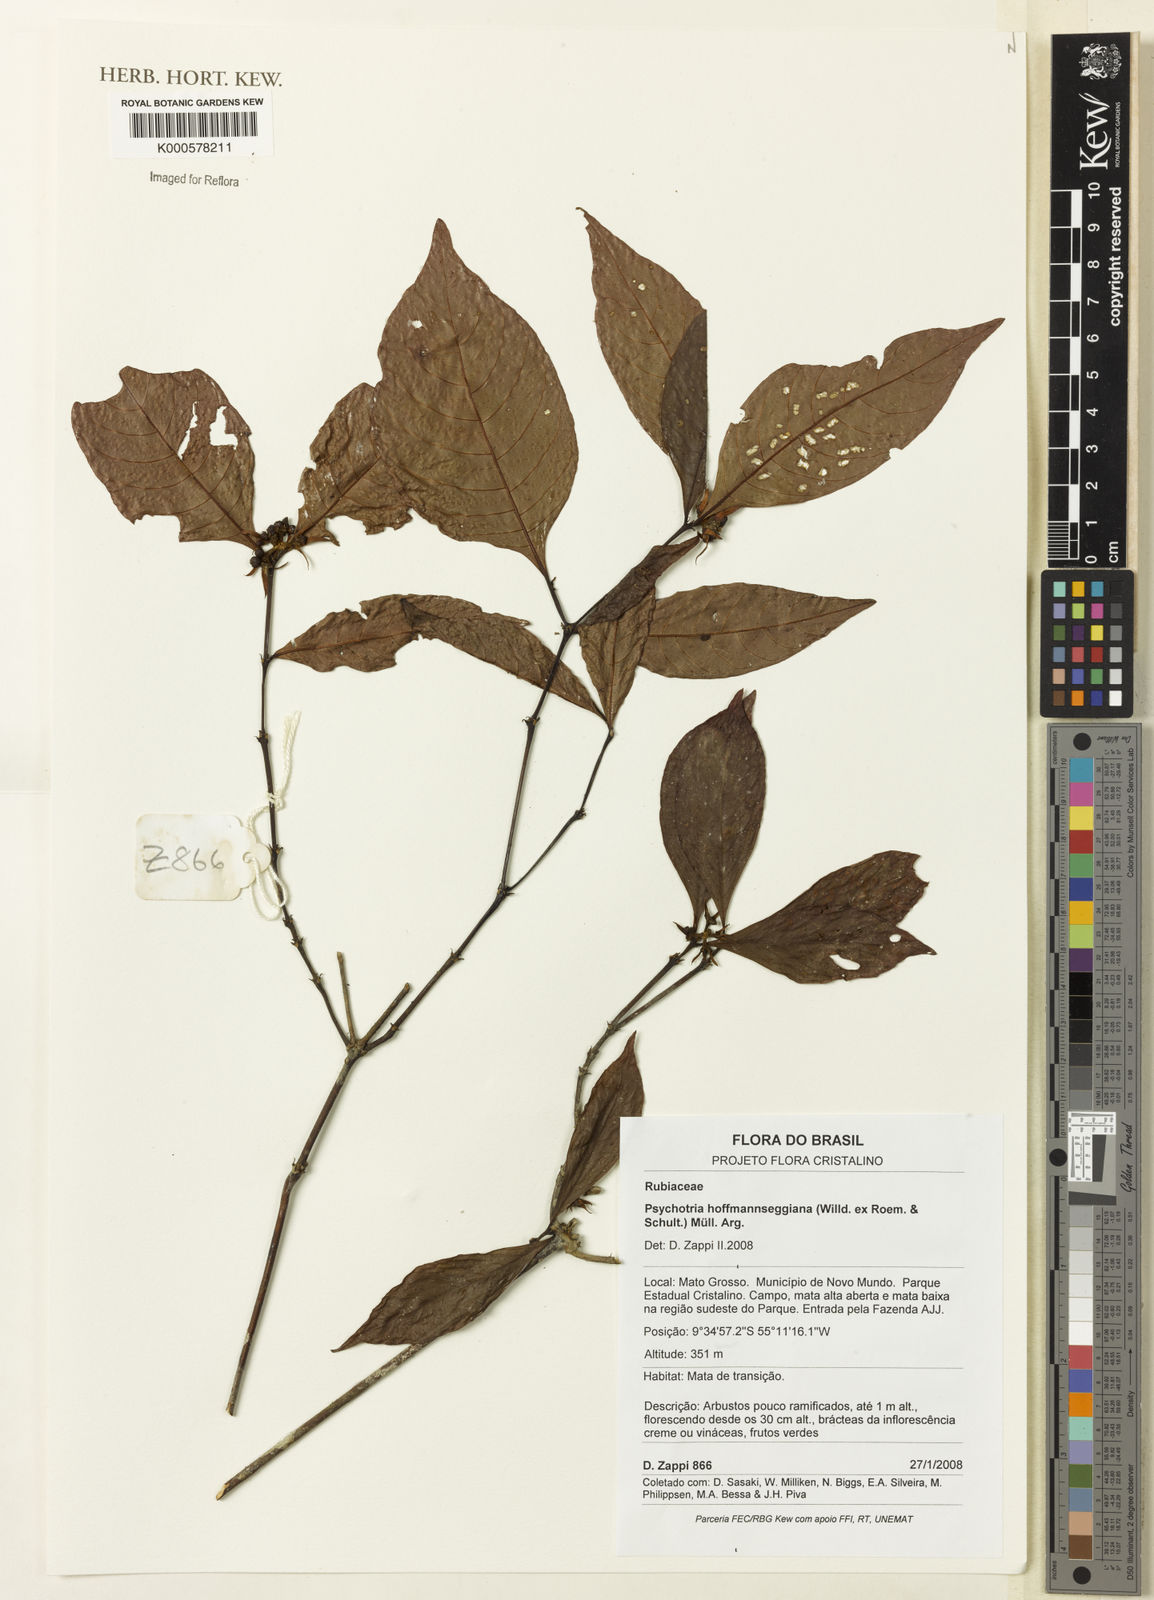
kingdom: Plantae
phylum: Tracheophyta
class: Magnoliopsida
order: Gentianales
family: Rubiaceae
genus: Psychotria
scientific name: Psychotria
